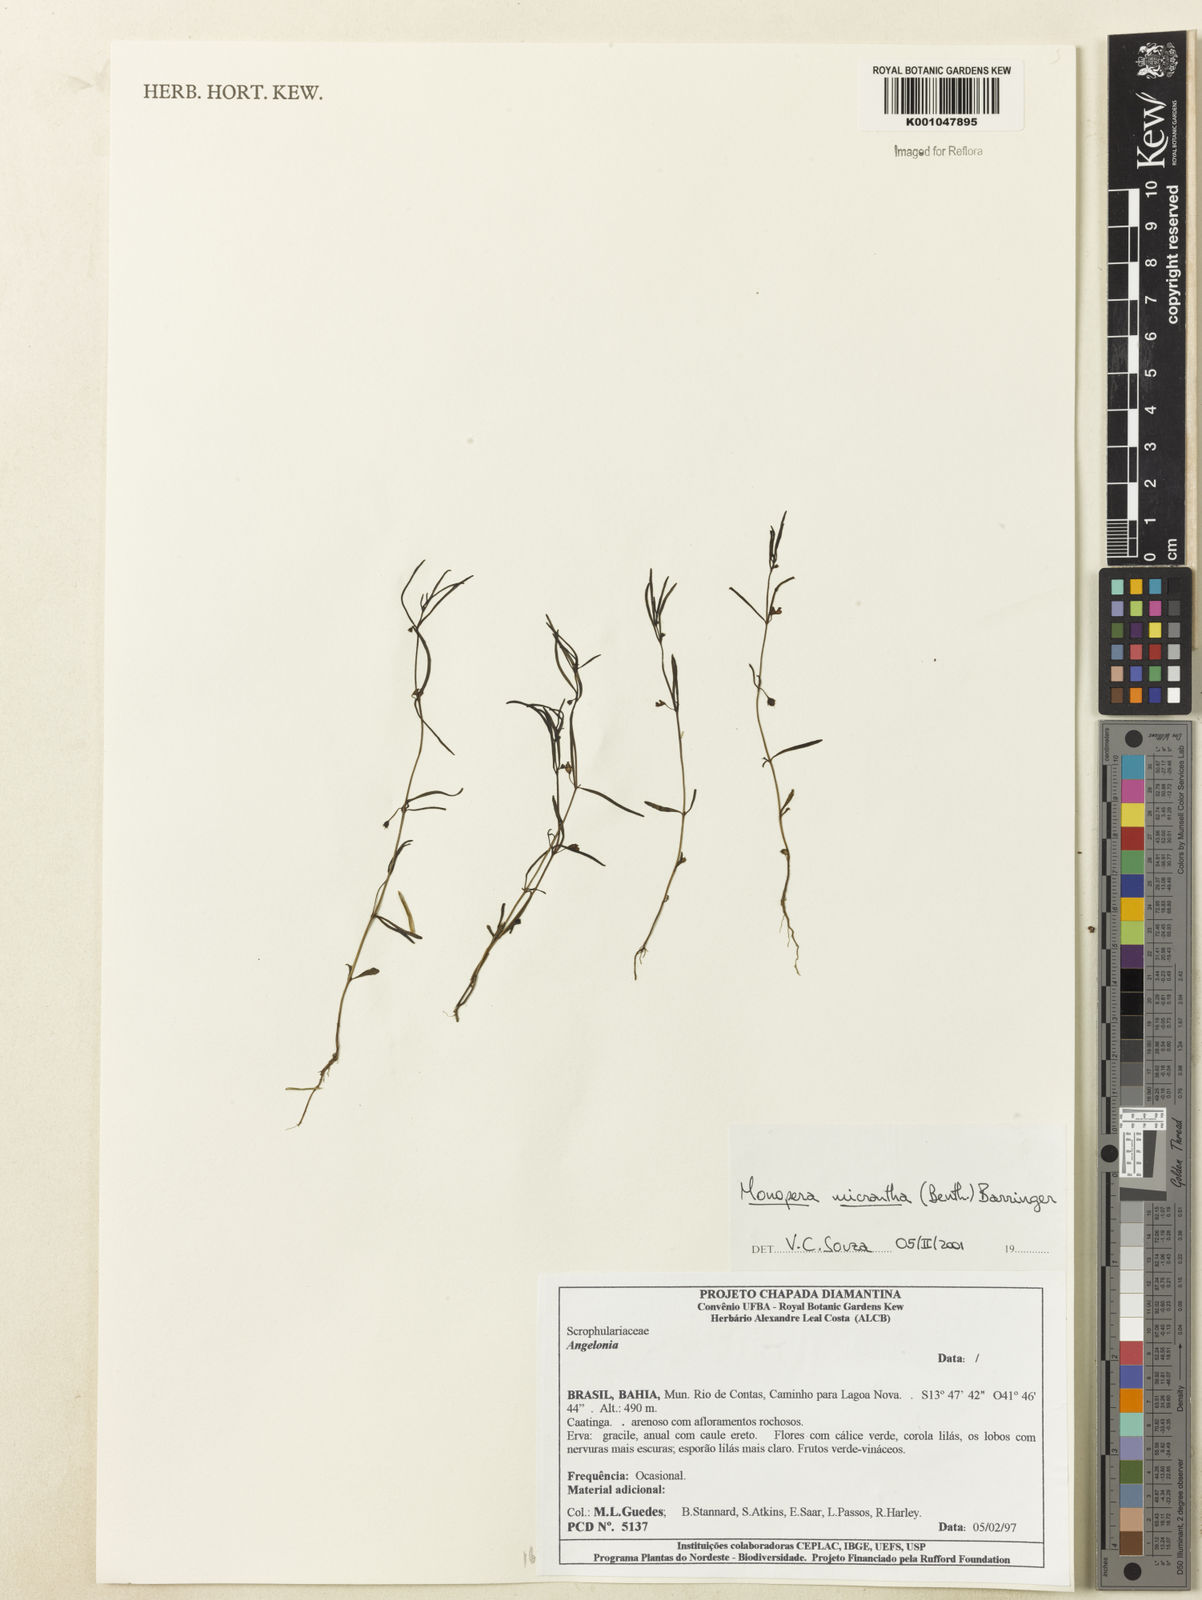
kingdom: Plantae
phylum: Tracheophyta
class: Magnoliopsida
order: Lamiales
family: Plantaginaceae
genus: Angelonia
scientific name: Angelonia micrantha
